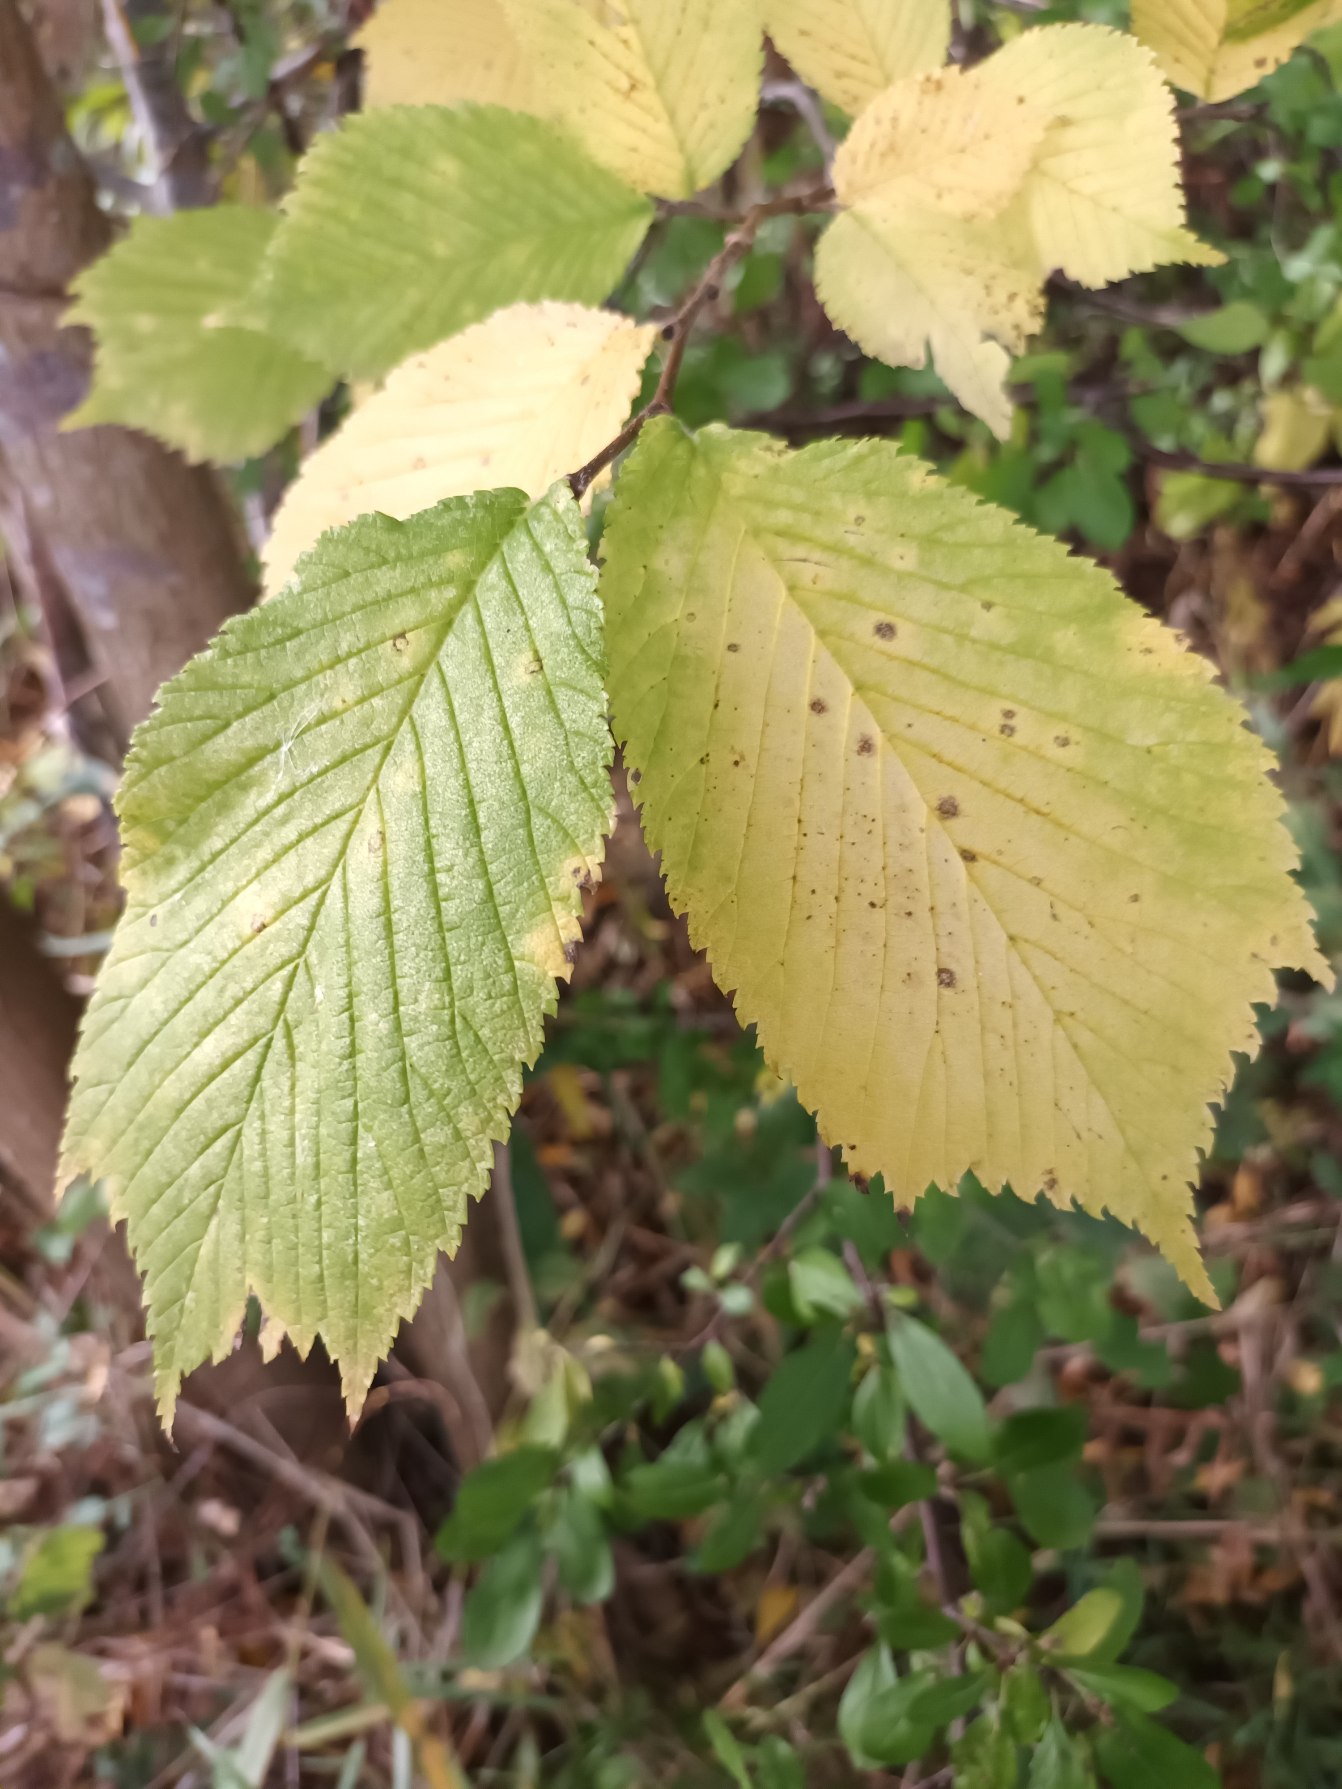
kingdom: Plantae
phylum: Tracheophyta
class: Magnoliopsida
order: Rosales
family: Ulmaceae
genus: Ulmus
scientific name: Ulmus glabra
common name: Skov-elm/storbladet elm
